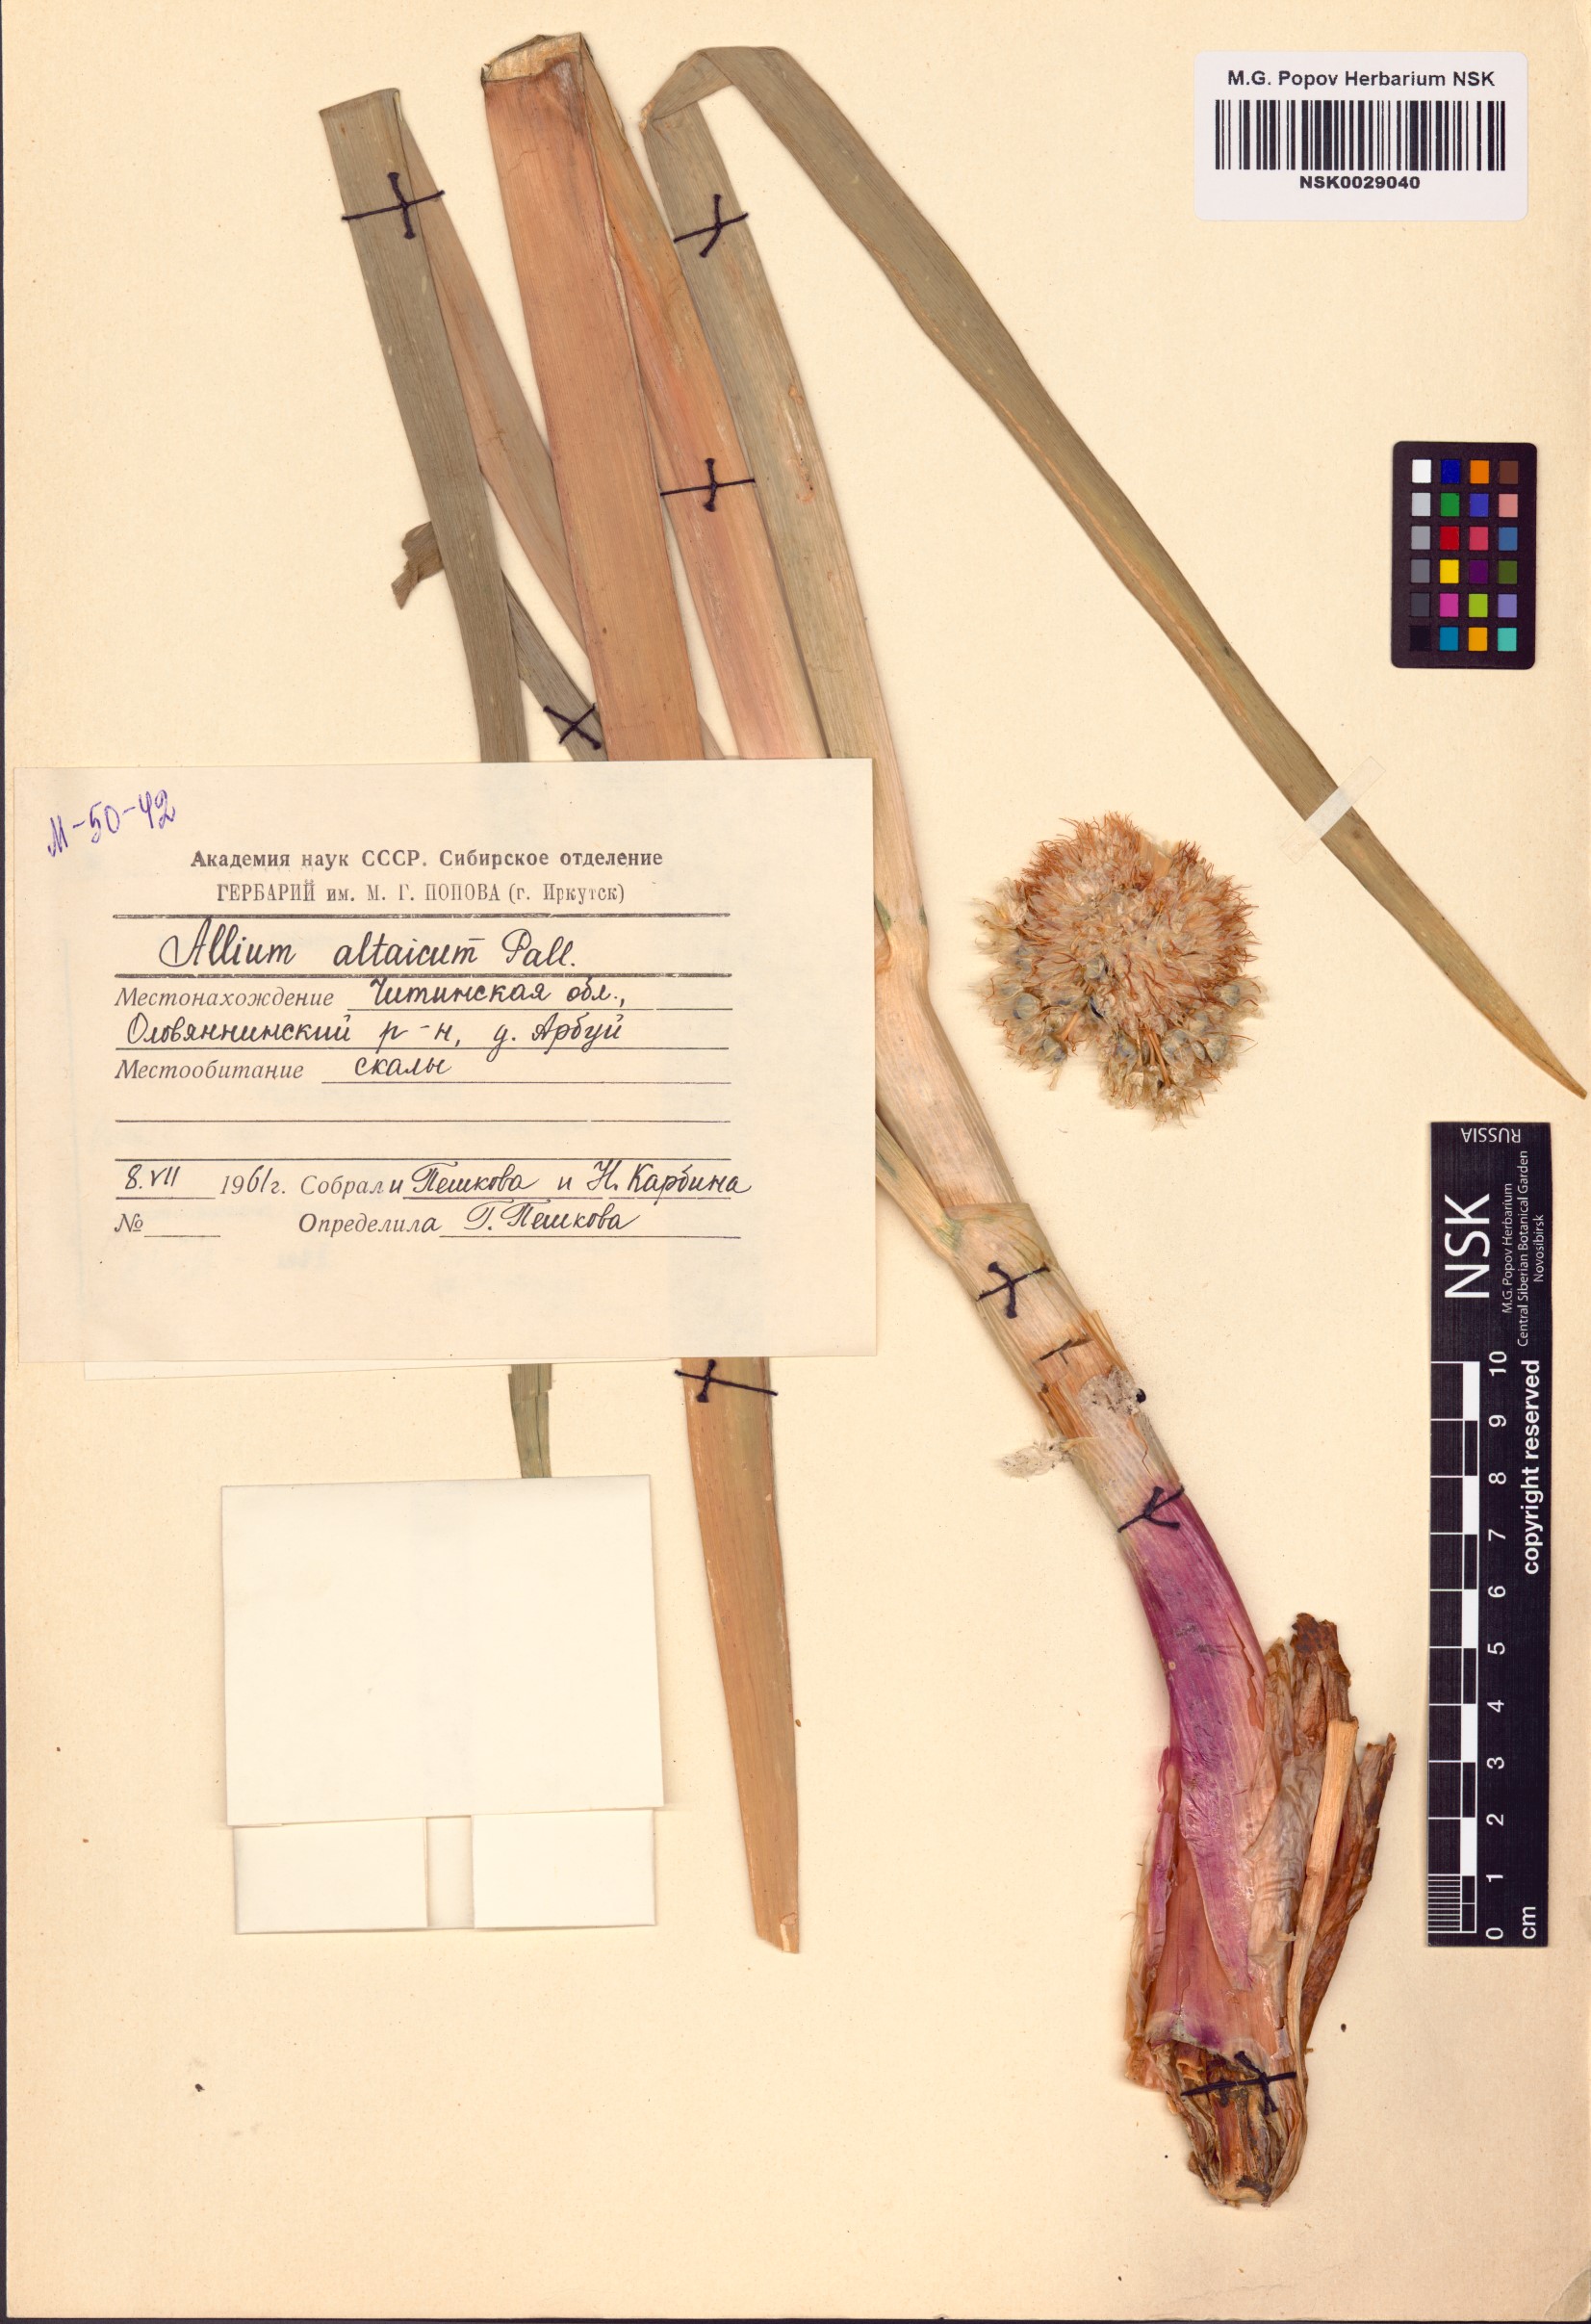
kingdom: Plantae
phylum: Tracheophyta
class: Liliopsida
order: Asparagales
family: Amaryllidaceae
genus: Allium
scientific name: Allium altaicum
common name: Altai onion
